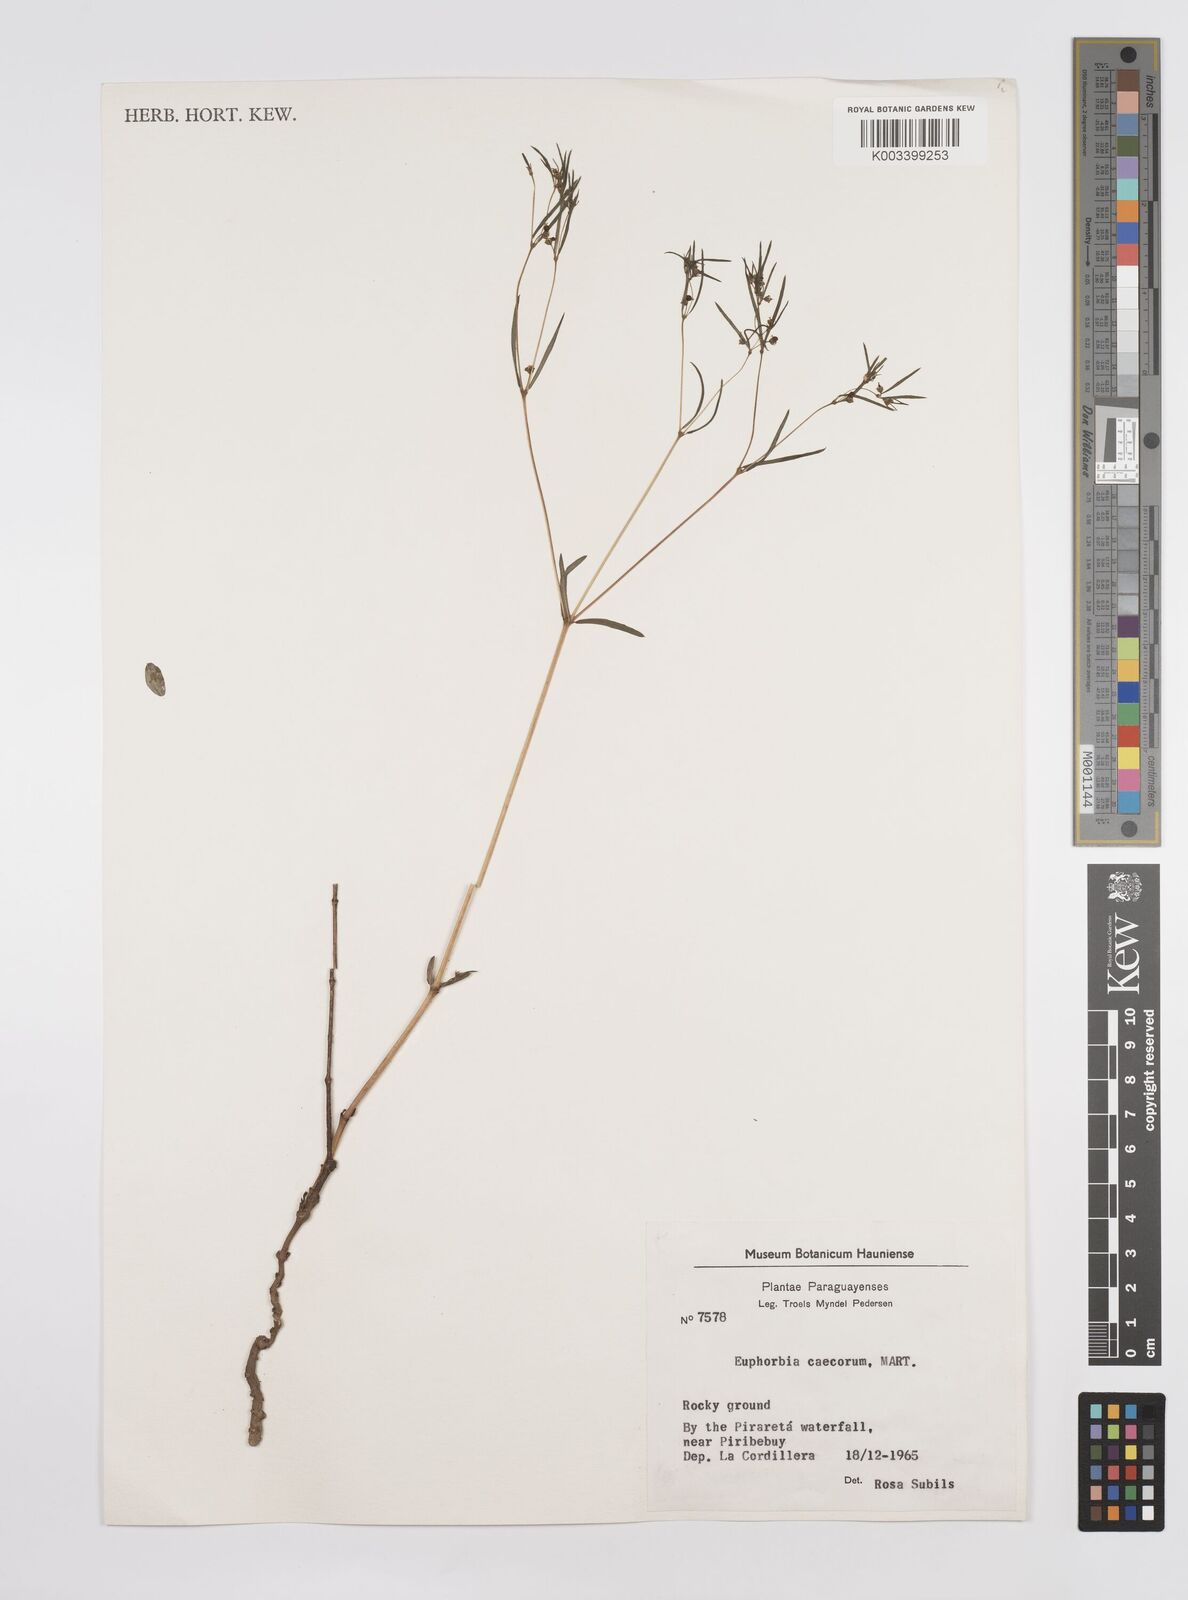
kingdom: Plantae
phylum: Tracheophyta
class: Magnoliopsida
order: Malpighiales
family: Euphorbiaceae
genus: Euphorbia
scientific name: Euphorbia potentilloides
